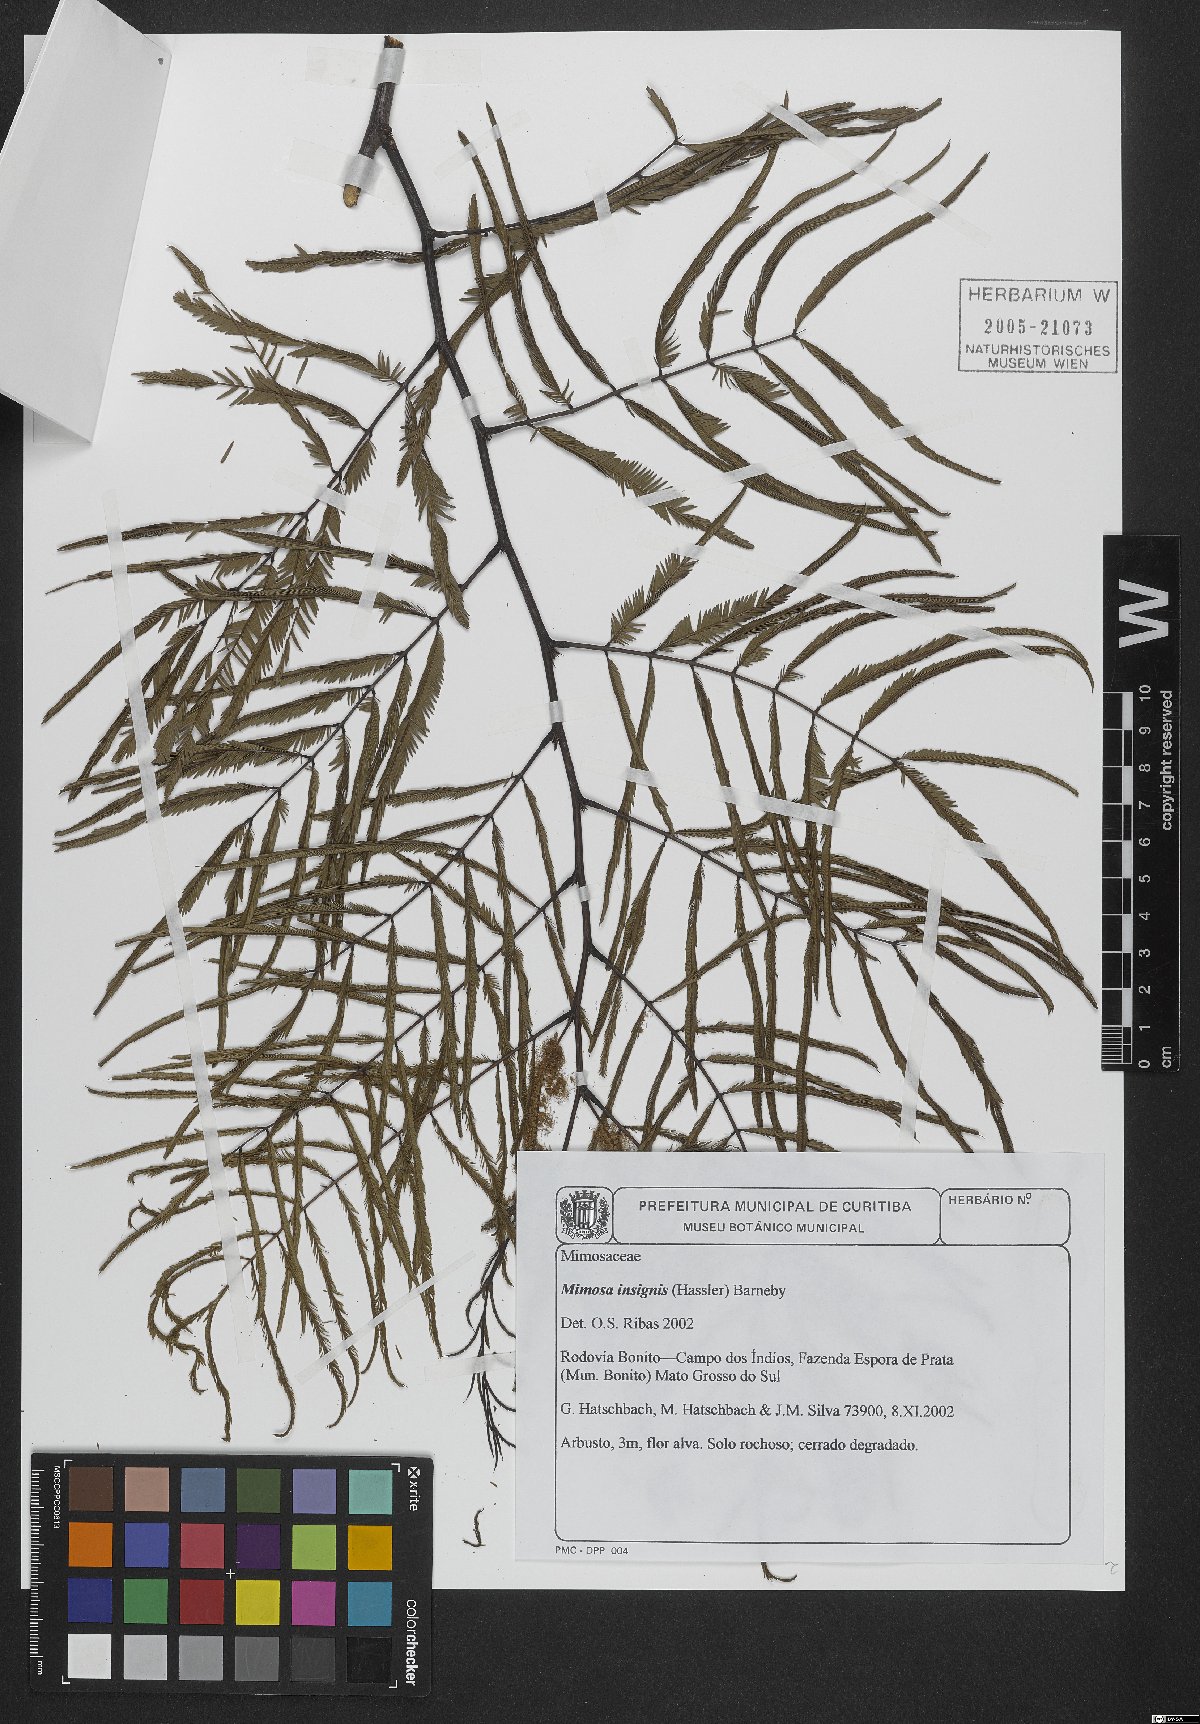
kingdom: Plantae
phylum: Tracheophyta
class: Magnoliopsida
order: Fabales
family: Fabaceae
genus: Mimosa
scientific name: Mimosa insignis
